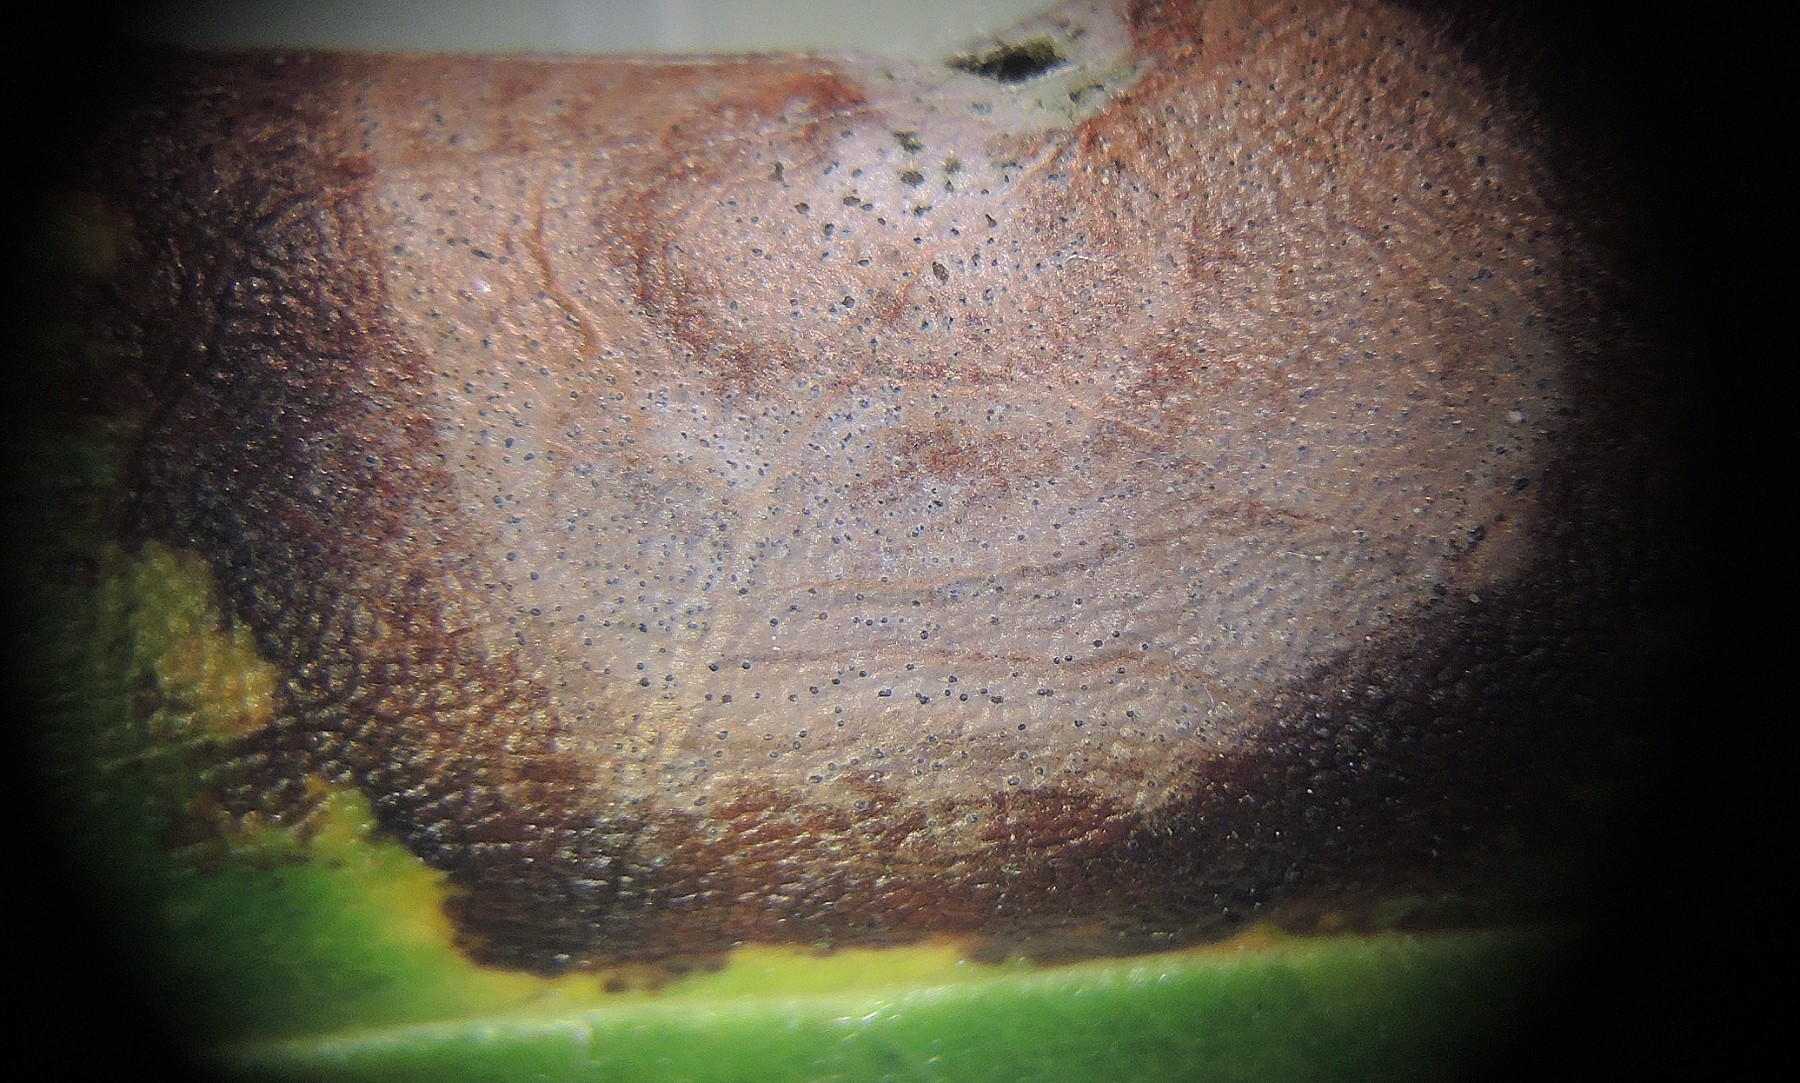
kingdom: Fungi
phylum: Ascomycota
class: Sordariomycetes
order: Glomerellales
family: Glomerellaceae
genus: Colletotrichum
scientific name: Colletotrichum gloeosporioides
